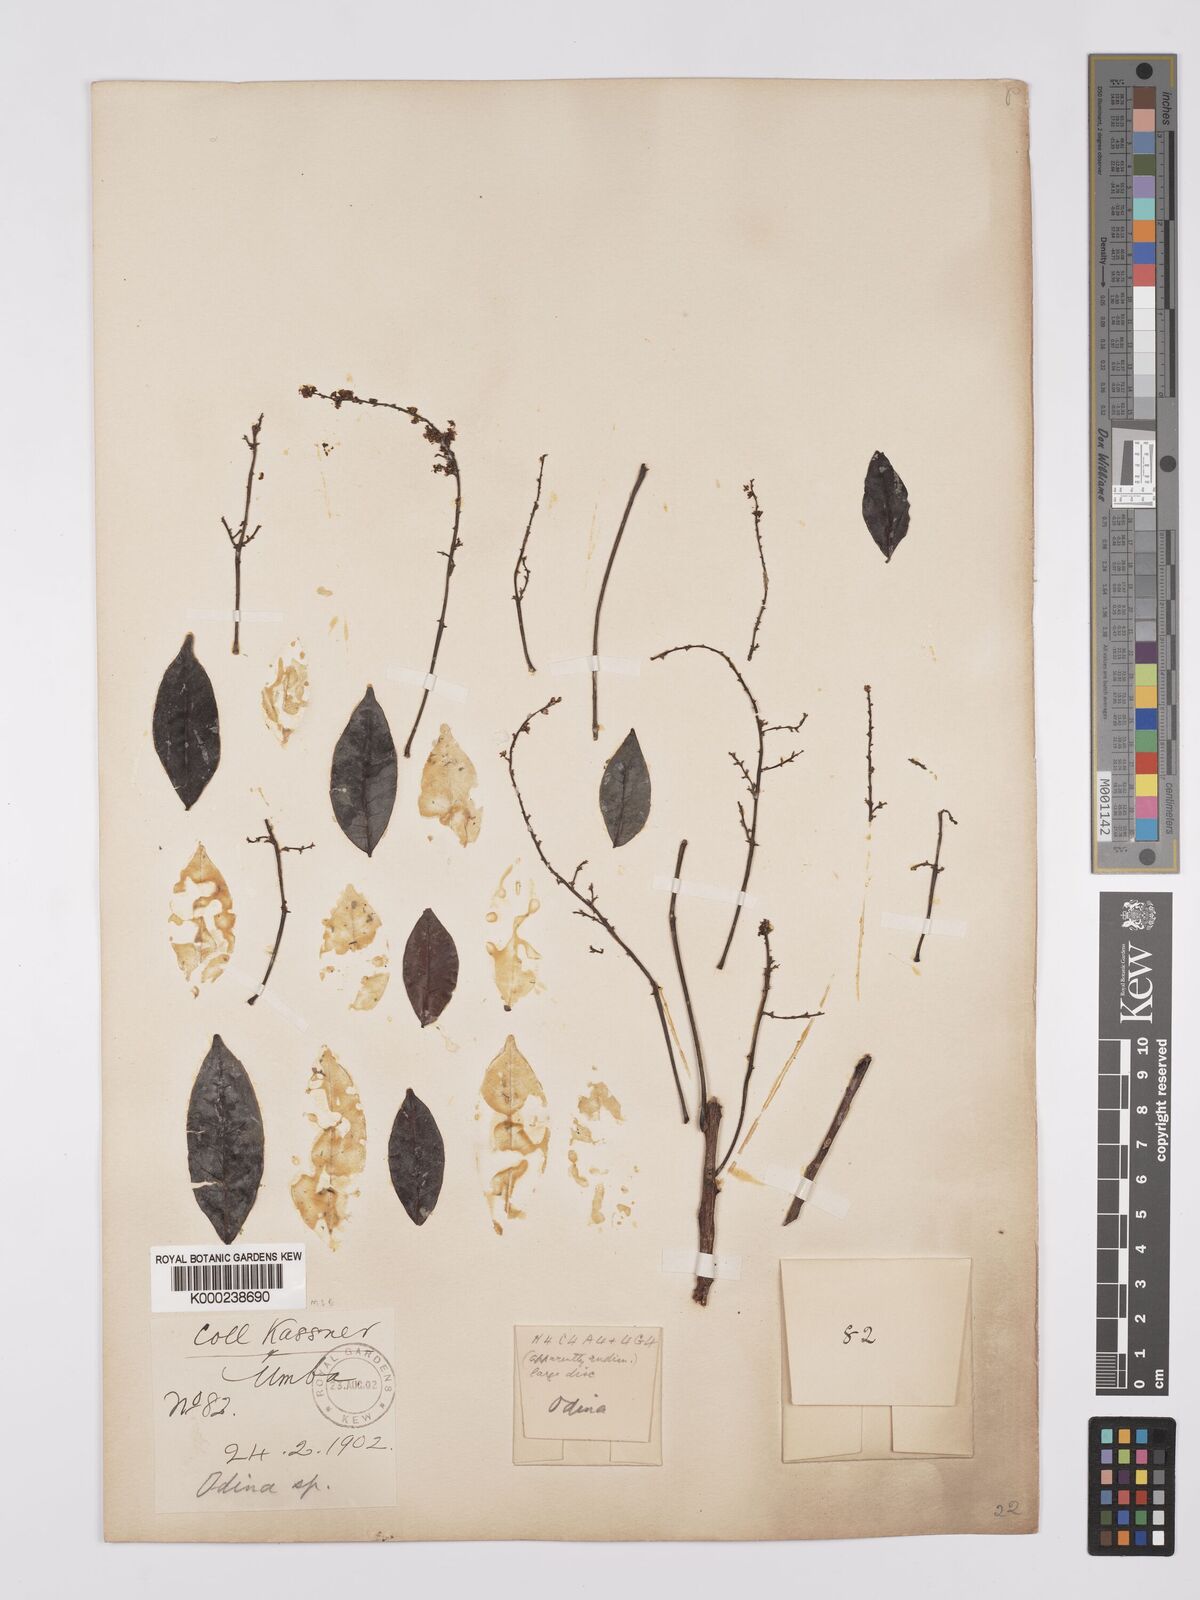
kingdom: Plantae
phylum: Tracheophyta
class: Magnoliopsida
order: Sapindales
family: Anacardiaceae
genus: Lannea
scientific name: Lannea schweinfurthii
